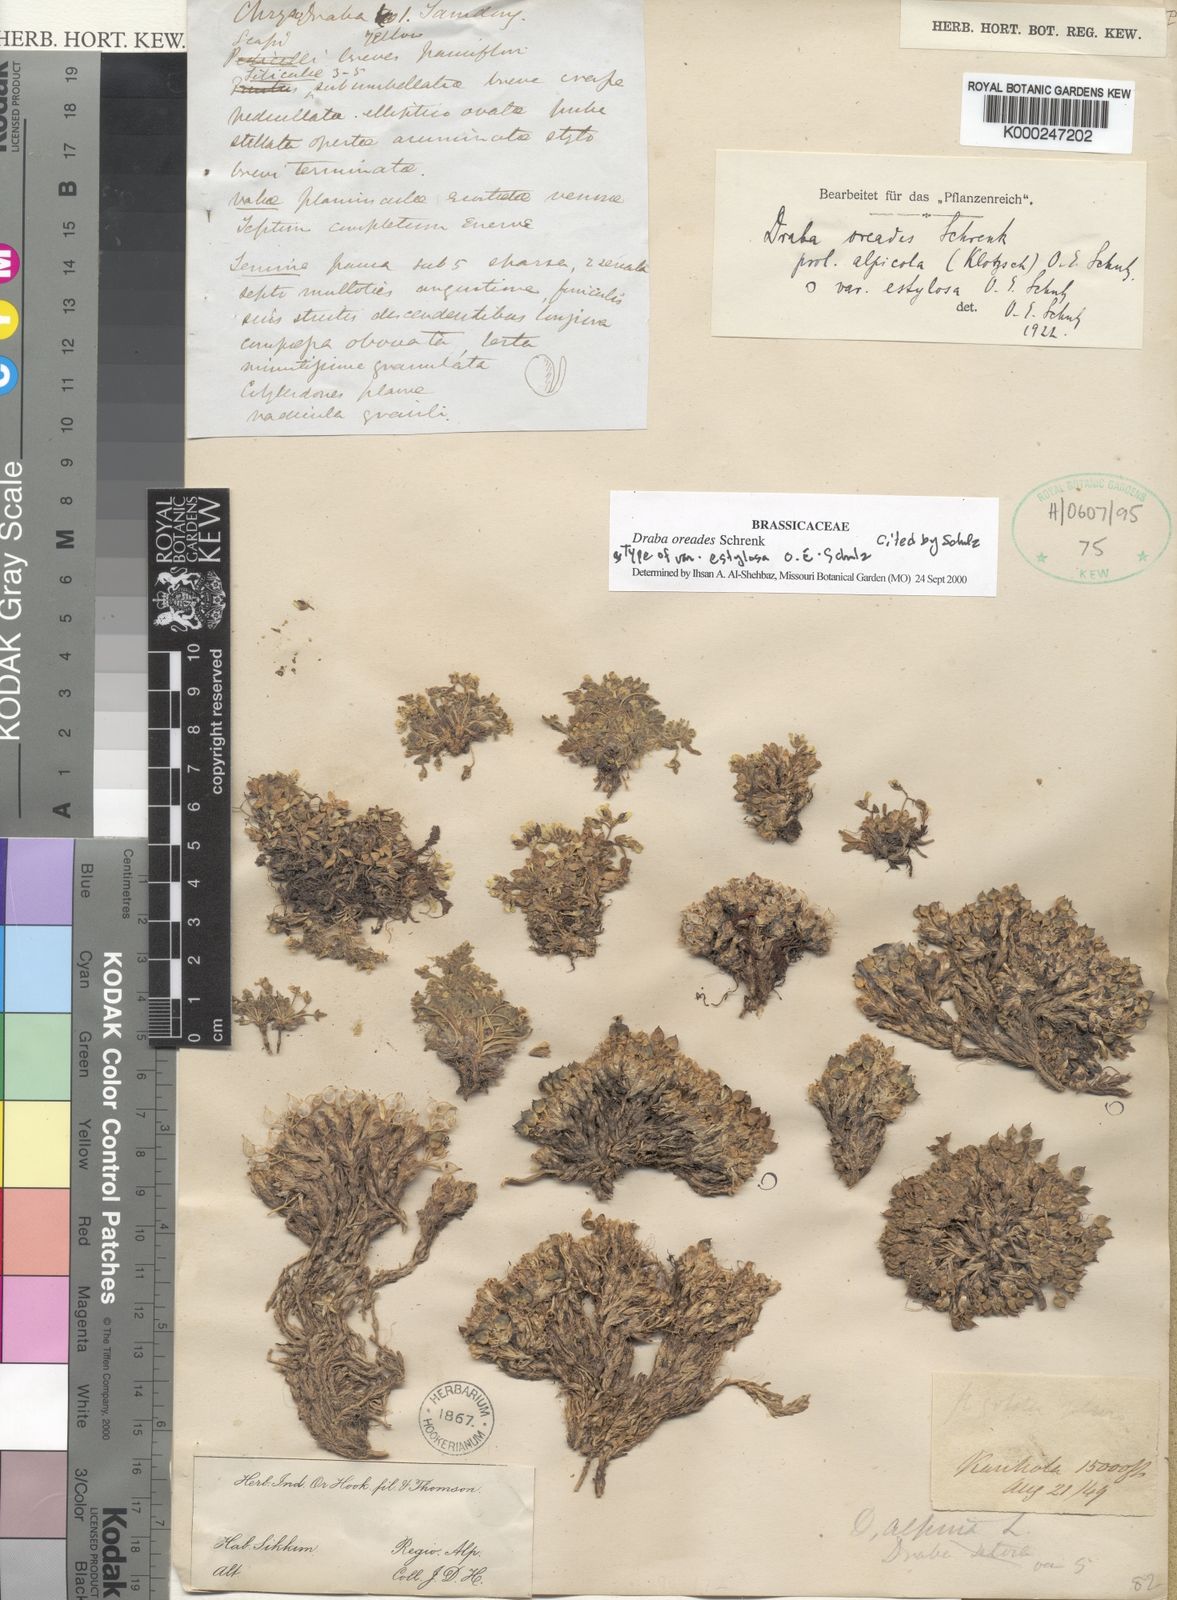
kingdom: Plantae
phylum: Tracheophyta
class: Magnoliopsida
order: Brassicales
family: Brassicaceae
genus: Draba
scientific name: Draba oreades
